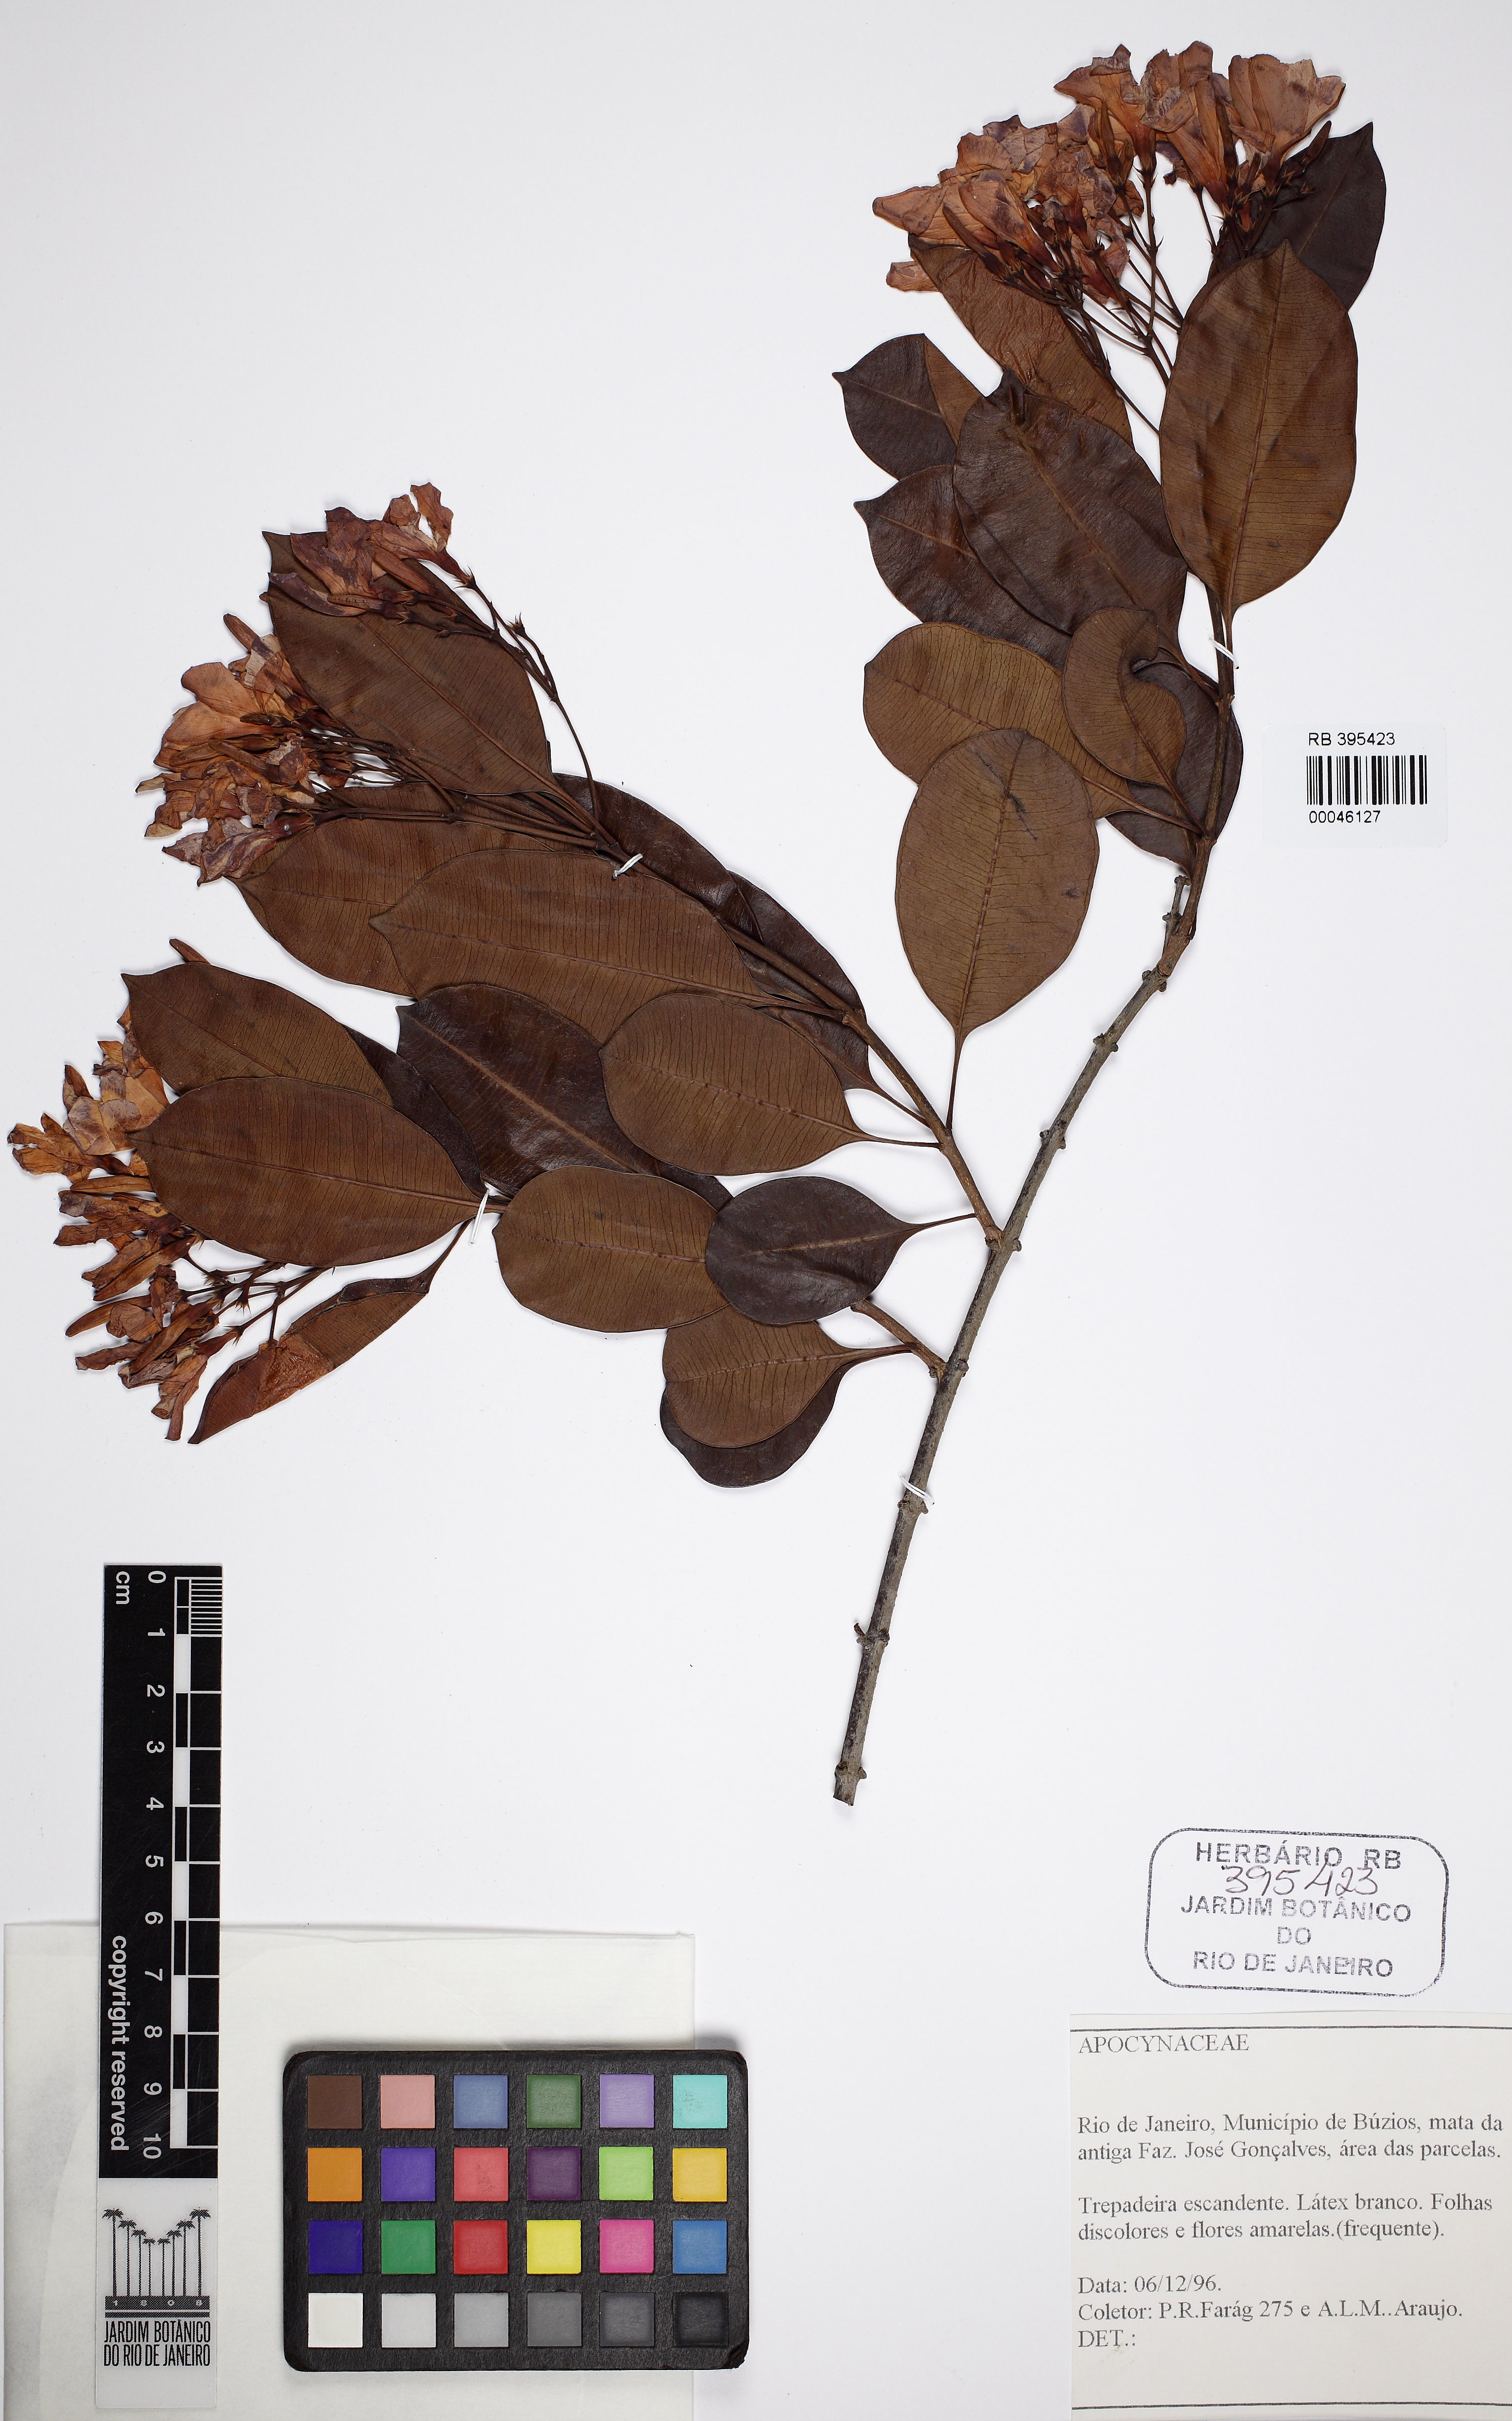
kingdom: Plantae
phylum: Tracheophyta
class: Magnoliopsida
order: Gentianales
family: Apocynaceae
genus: Skytanthus
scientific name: Skytanthus hancorniifolius
